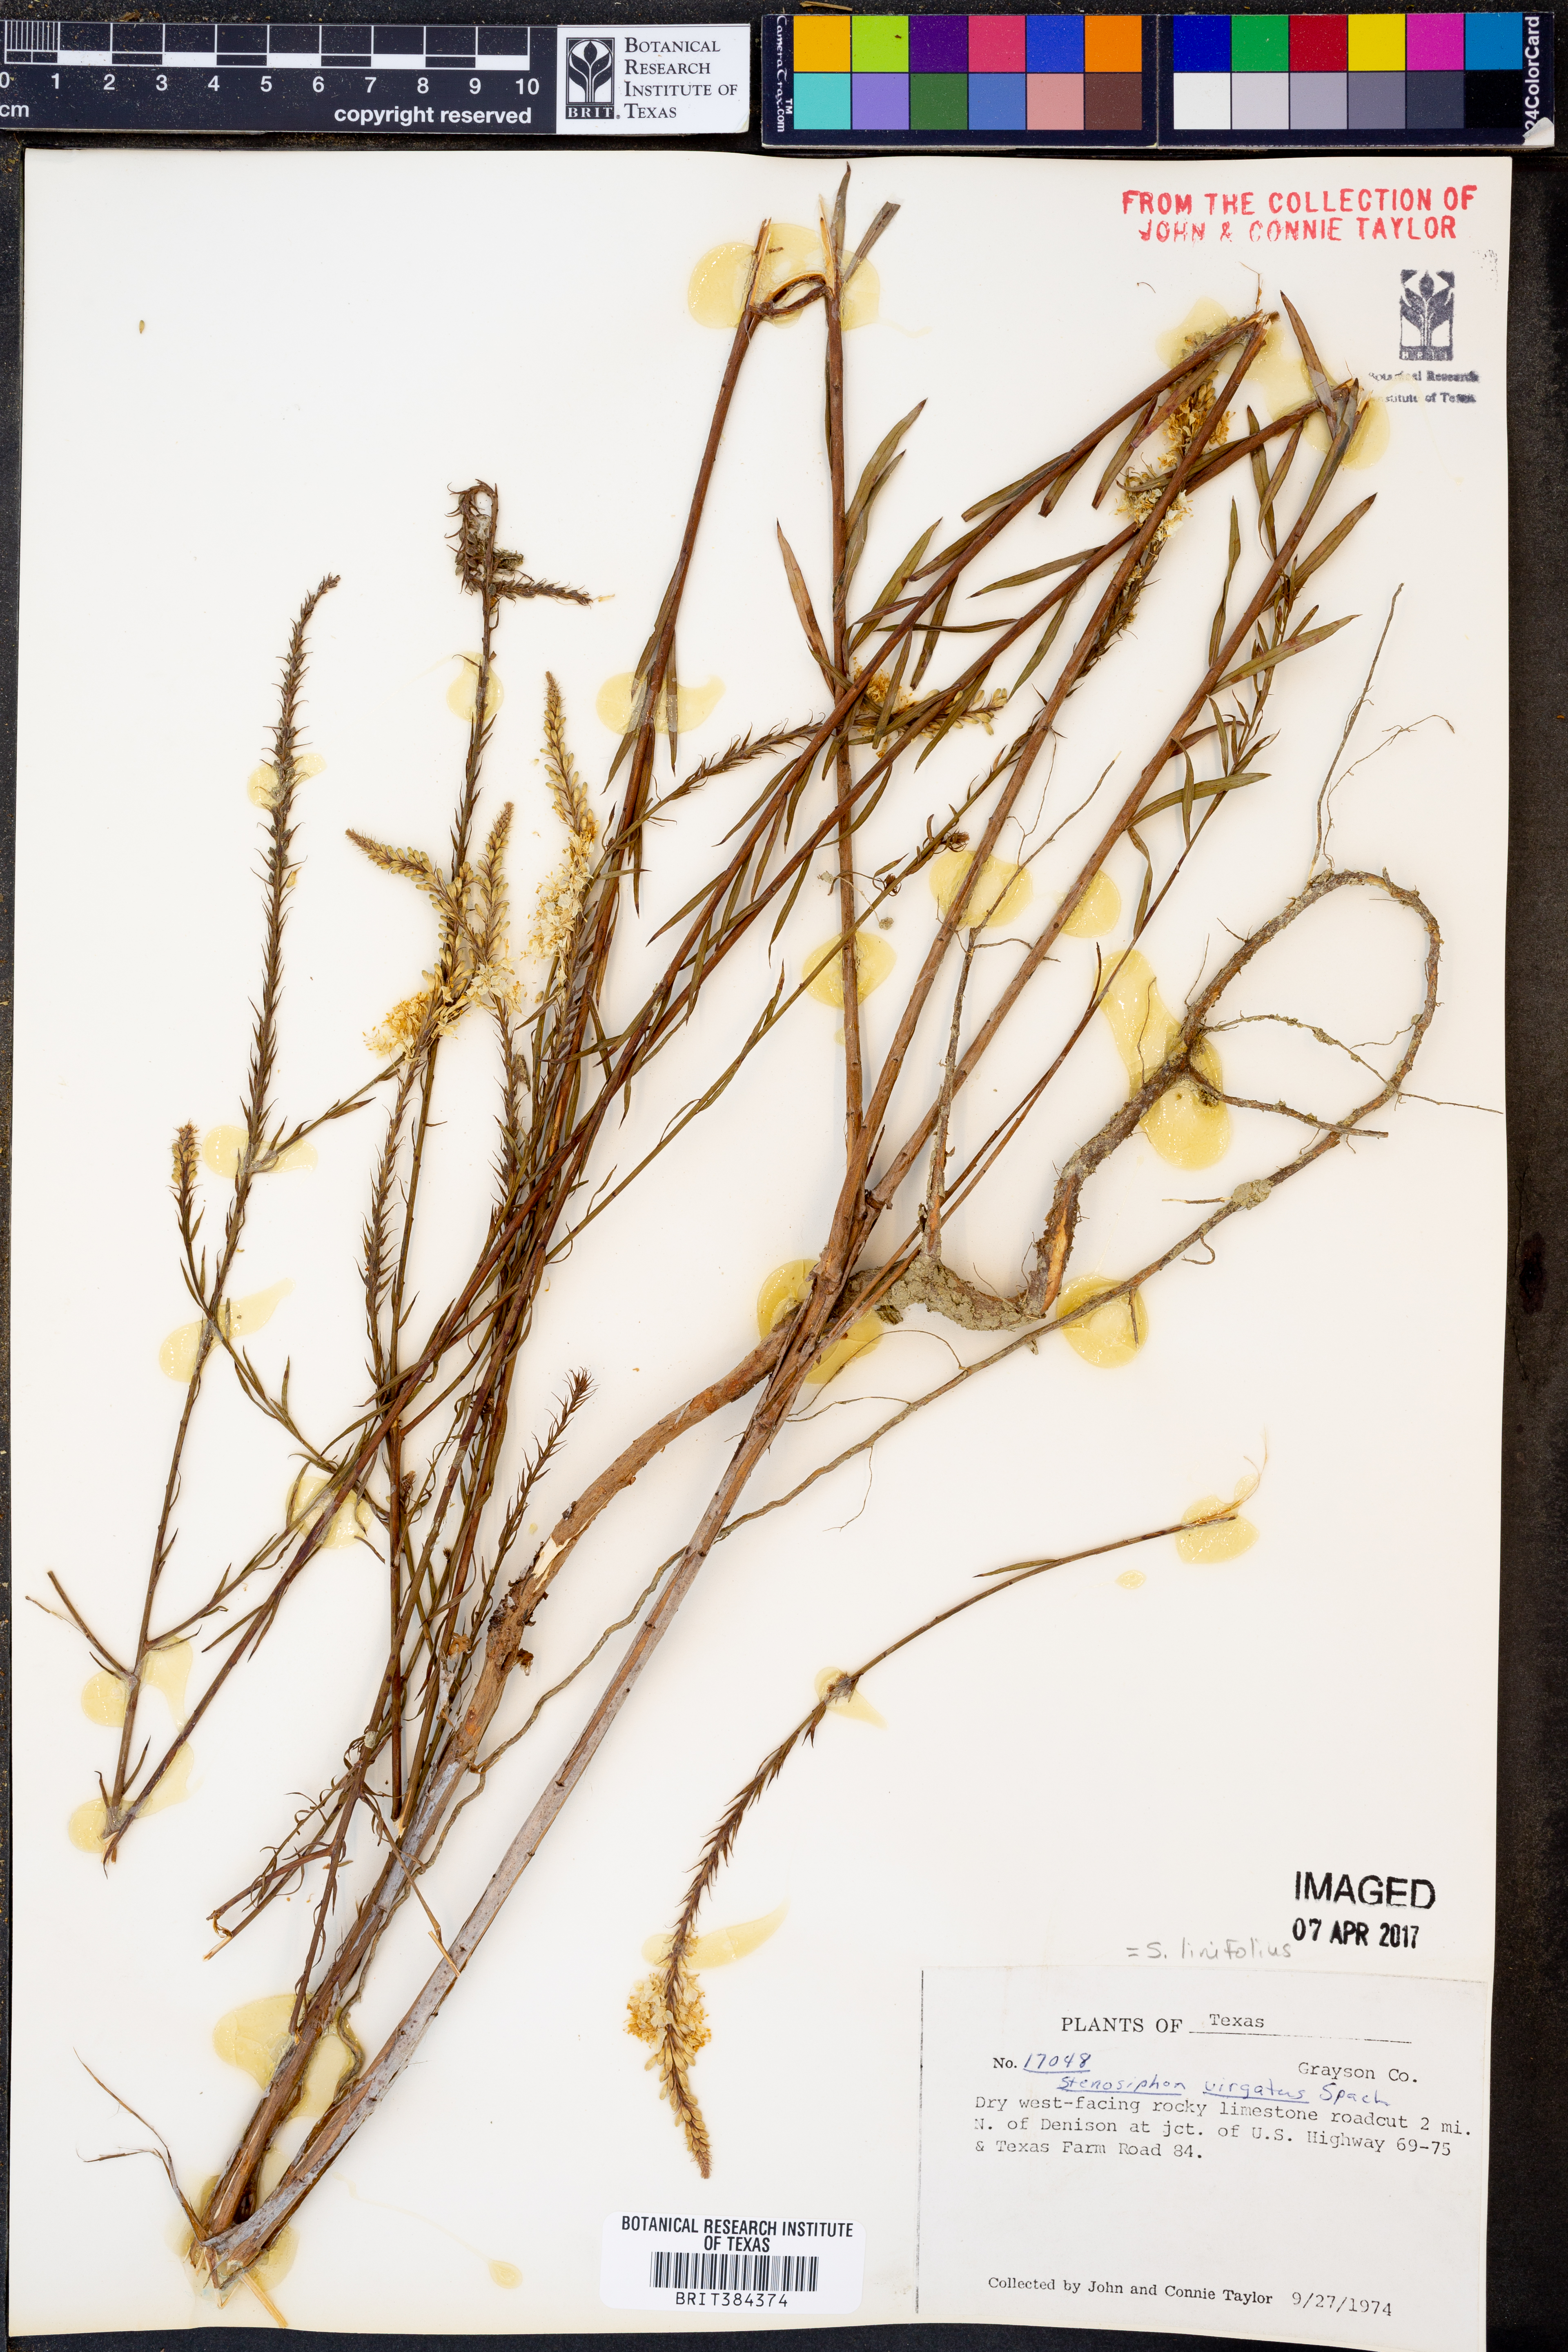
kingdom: Plantae
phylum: Tracheophyta
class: Magnoliopsida
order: Myrtales
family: Onagraceae
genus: Oenothera
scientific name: Oenothera glaucifolia
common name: False gaura
